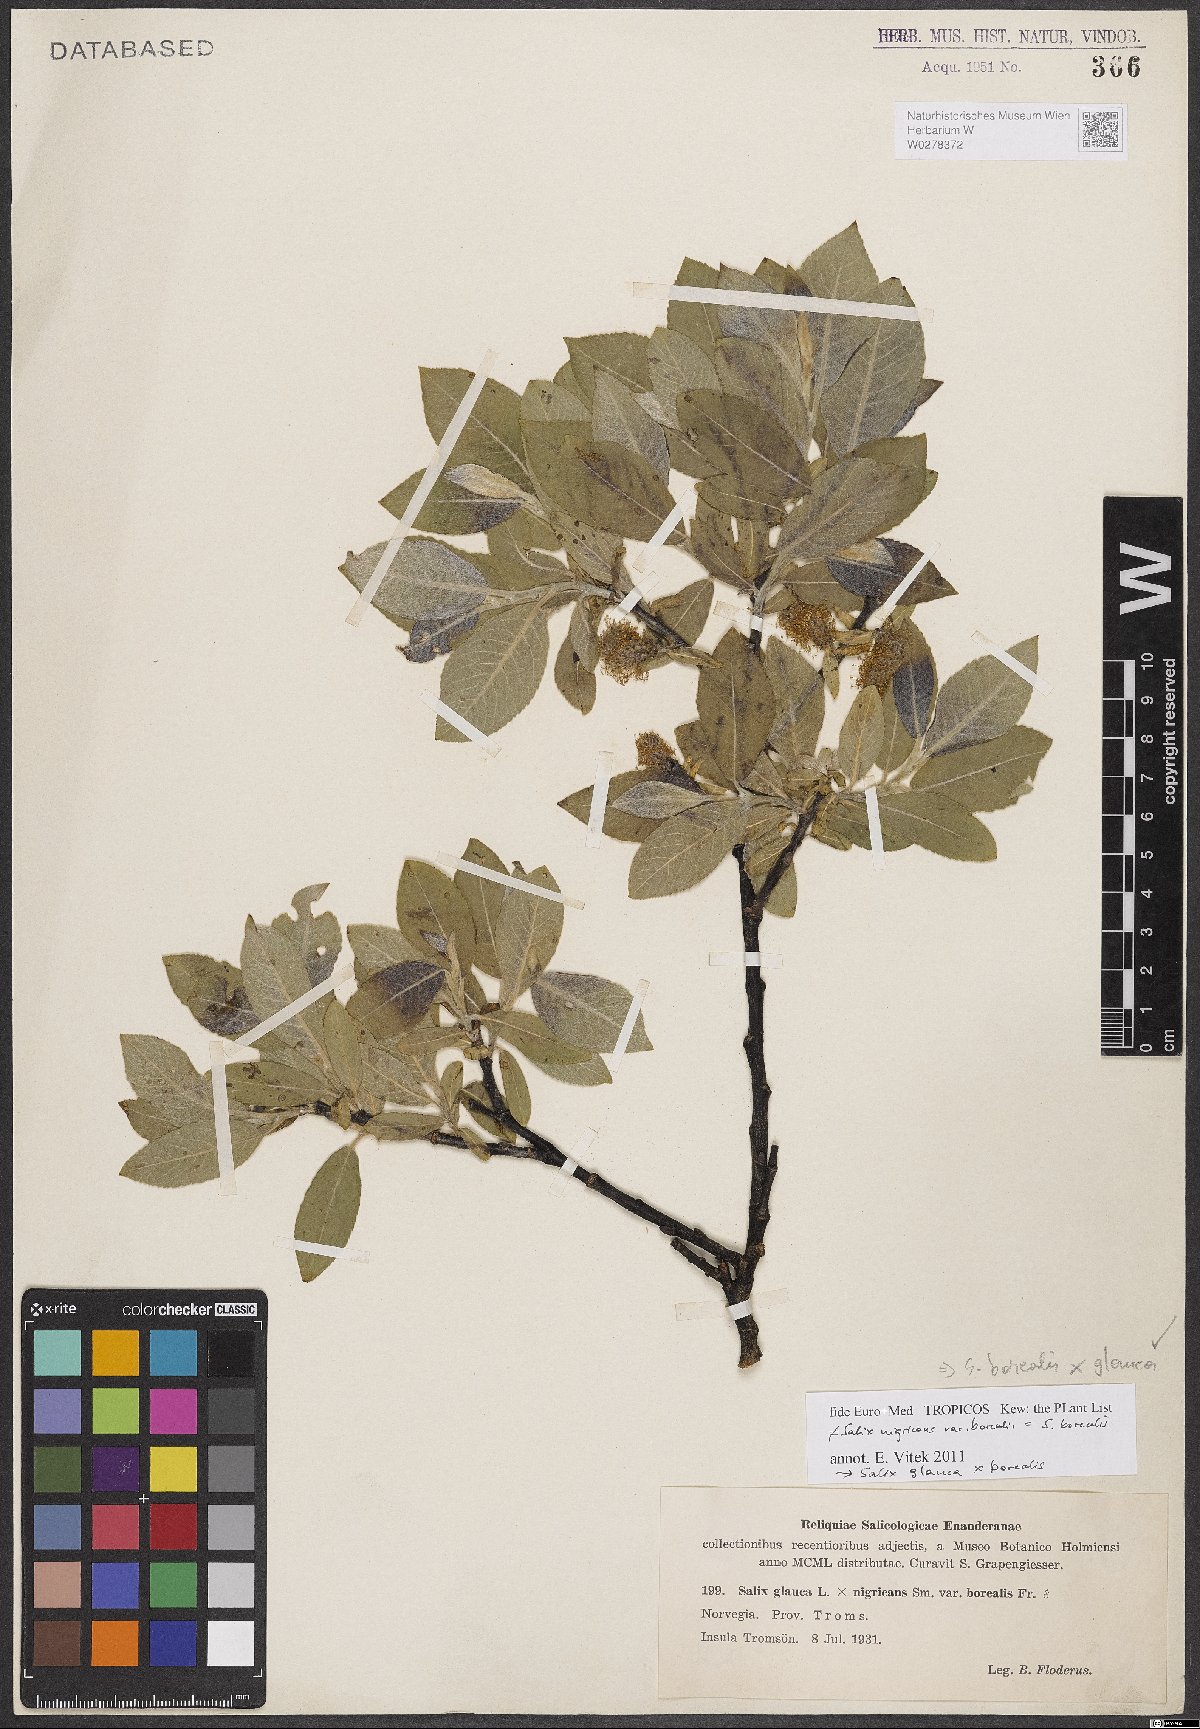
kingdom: Plantae
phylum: Tracheophyta
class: Magnoliopsida
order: Malpighiales
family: Salicaceae
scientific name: Salicaceae
